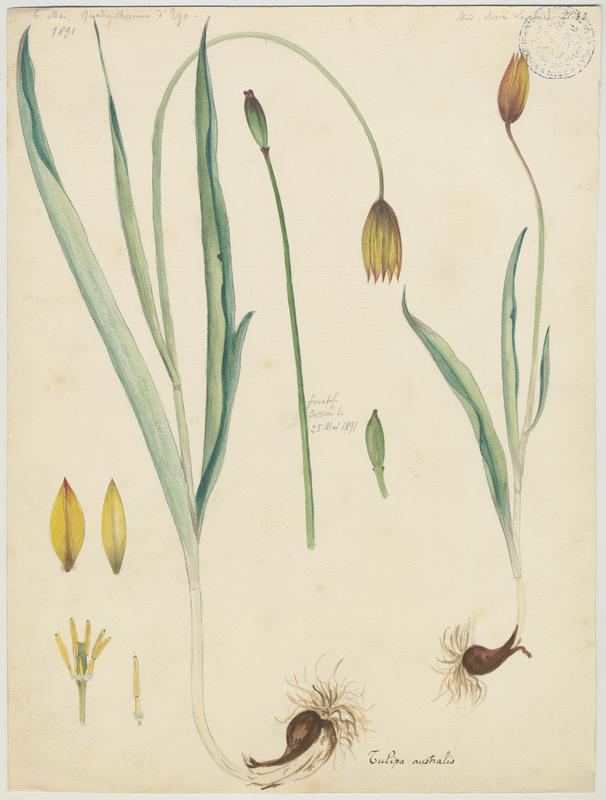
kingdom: Plantae
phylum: Tracheophyta
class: Liliopsida
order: Liliales
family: Liliaceae
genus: Tulipa
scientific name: Tulipa sylvestris
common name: Wild tulip
